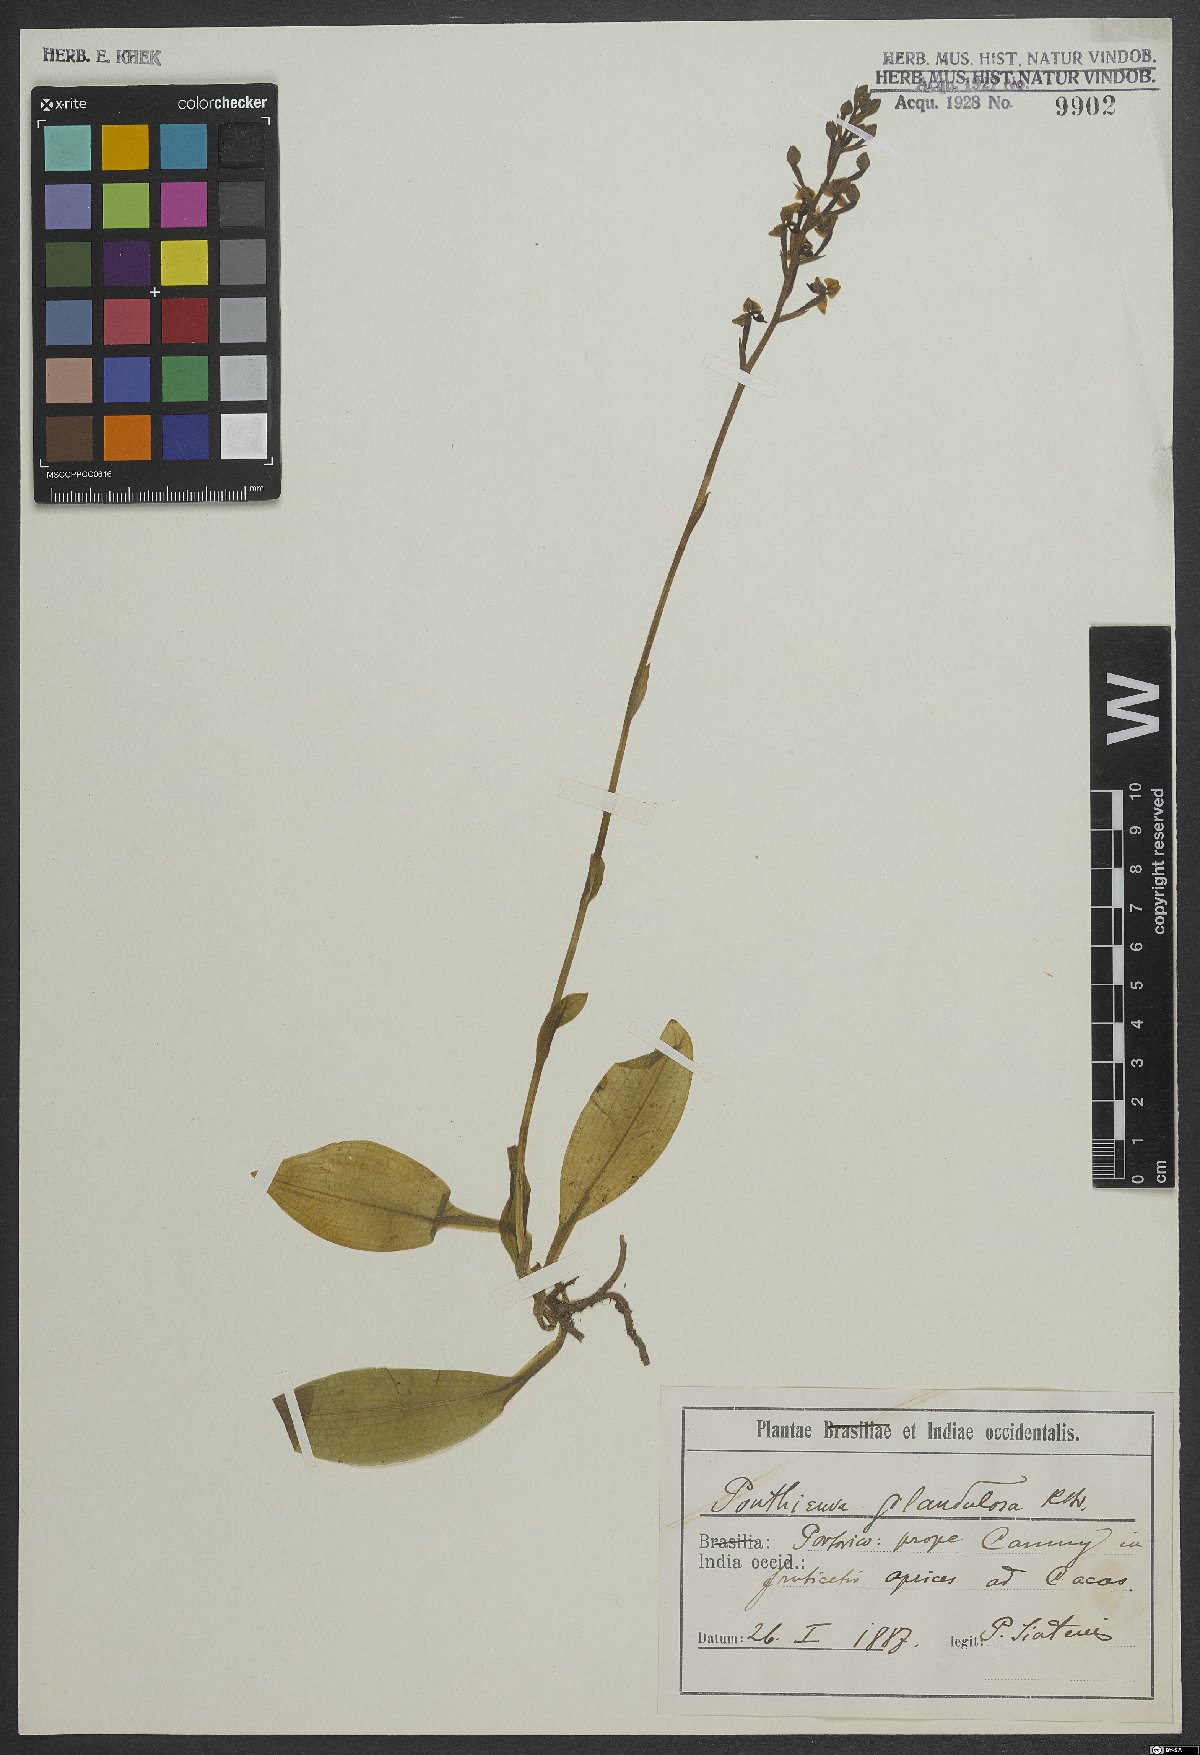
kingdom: Plantae
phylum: Tracheophyta
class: Liliopsida
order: Asparagales
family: Orchidaceae
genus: Ponthieva
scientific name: Ponthieva glandulosa
